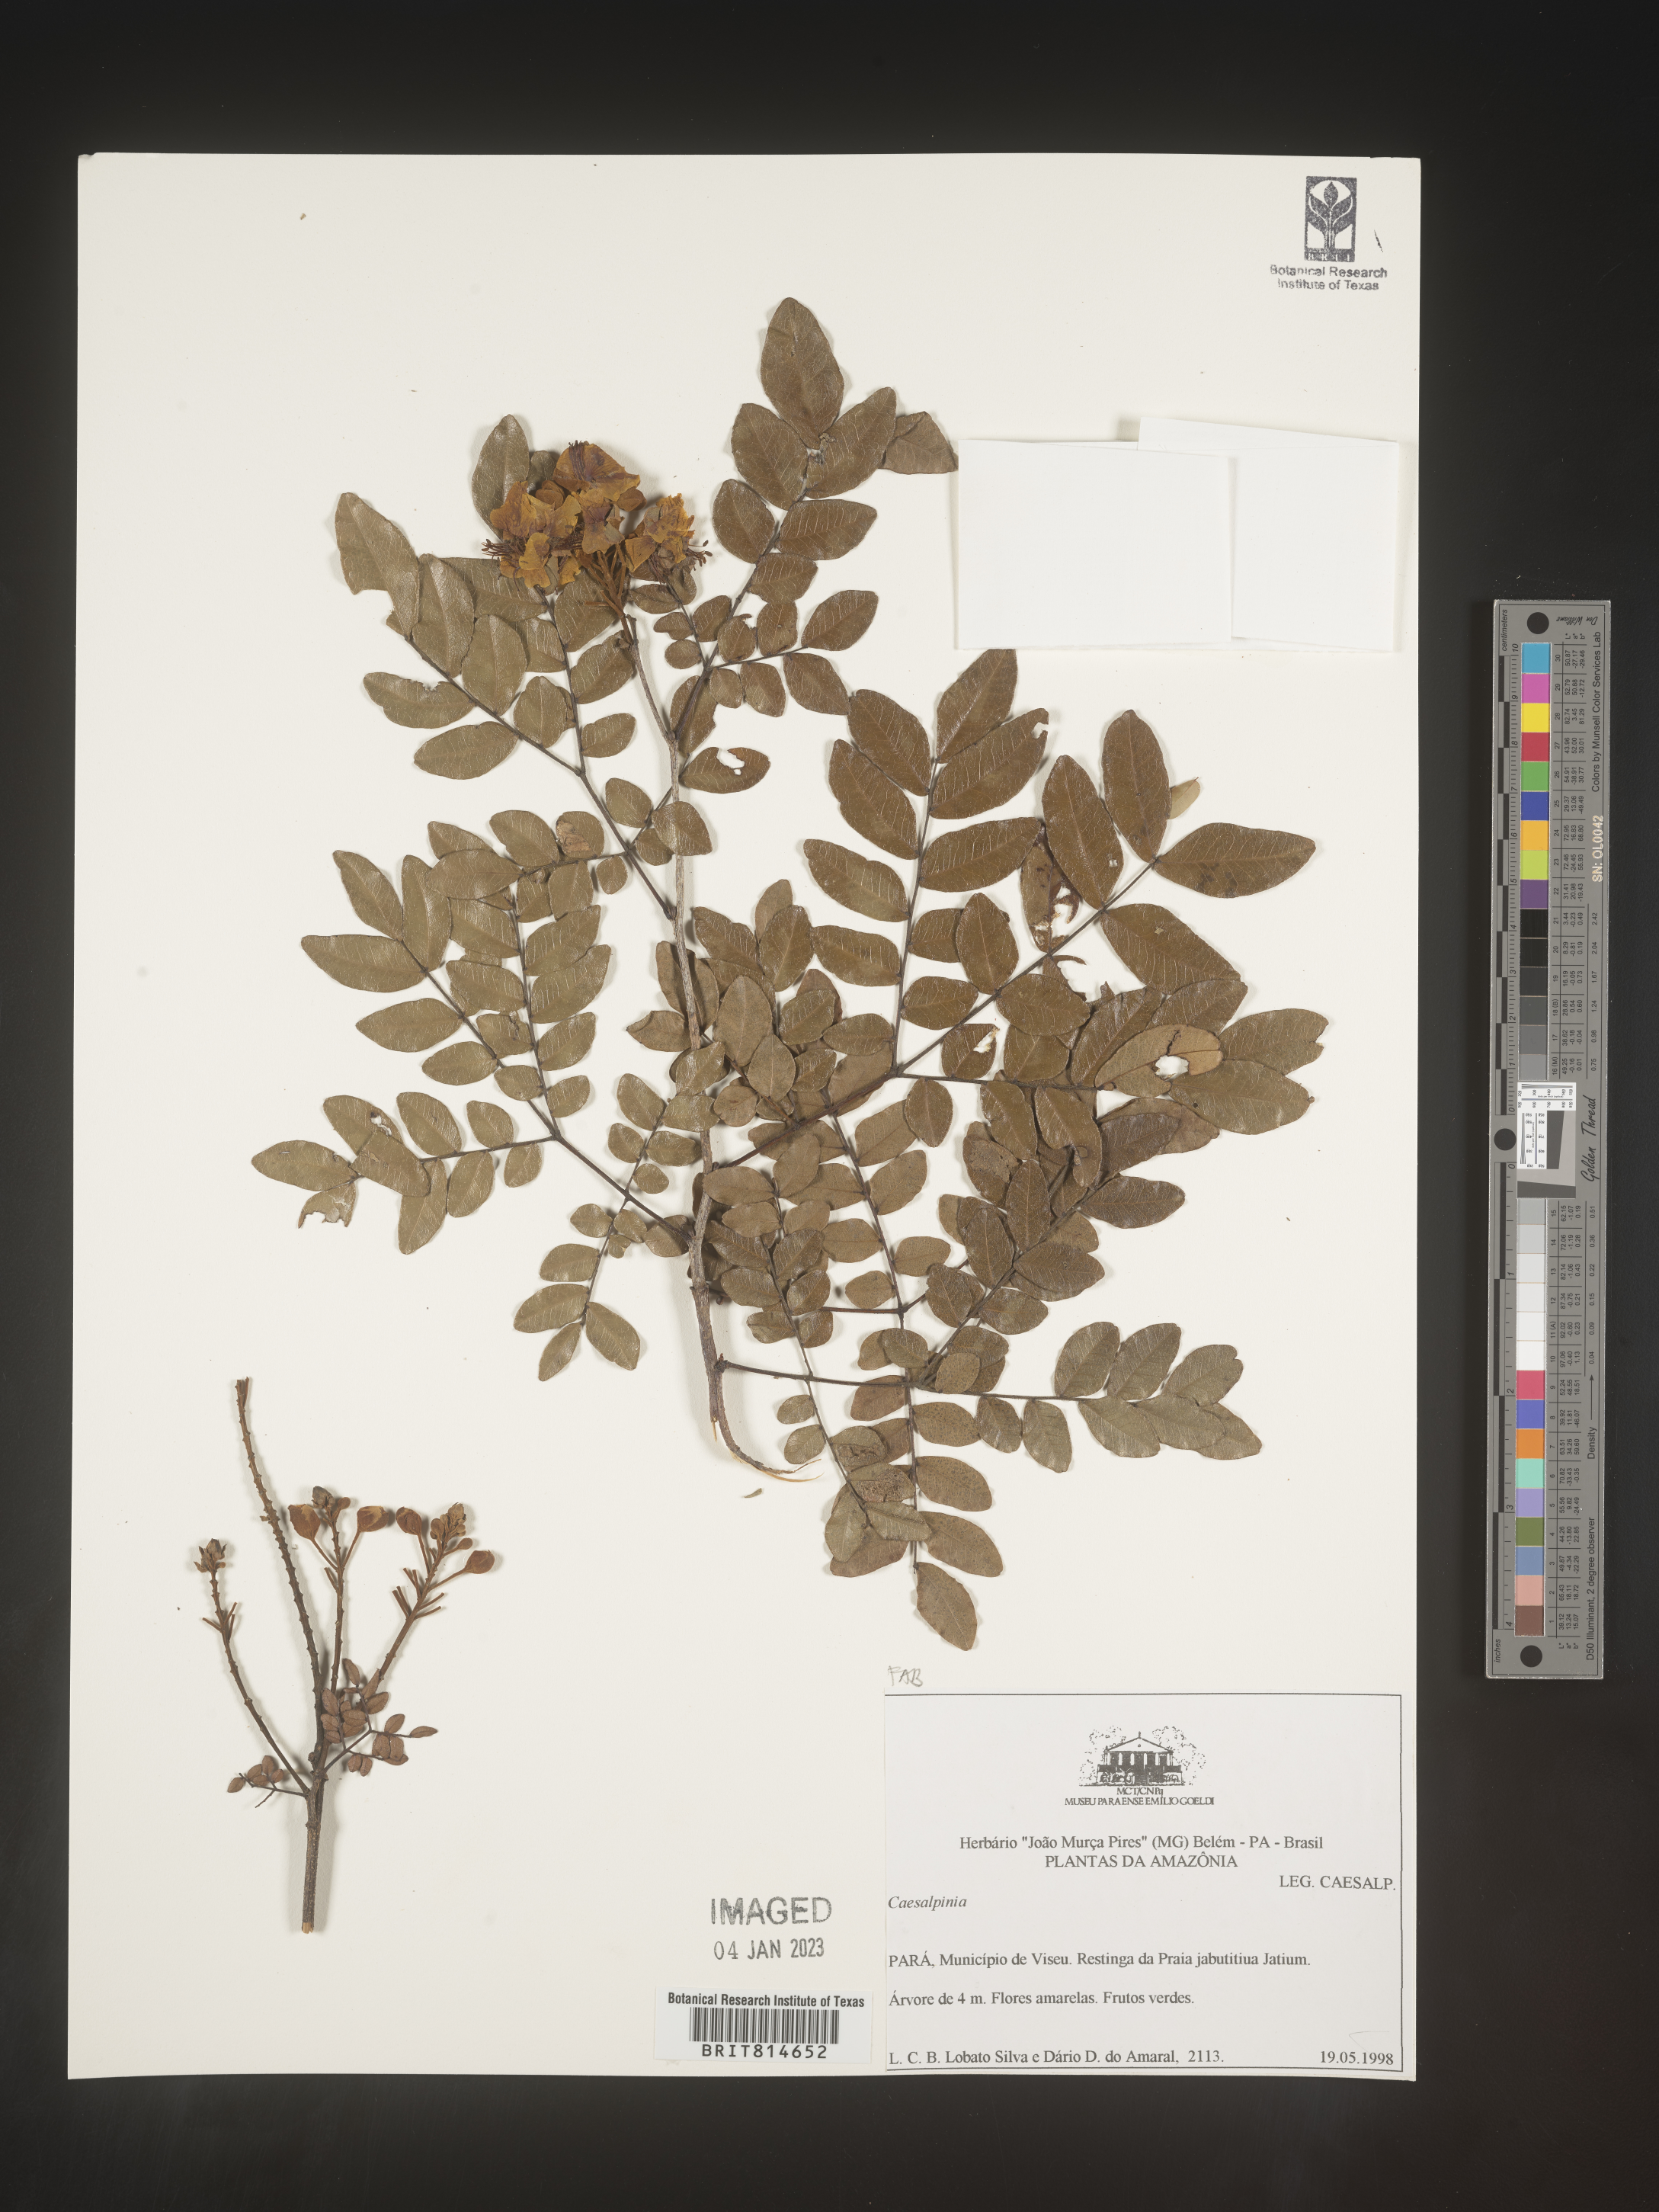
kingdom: Plantae
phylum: Tracheophyta
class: Magnoliopsida
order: Fabales
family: Fabaceae
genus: Caesalpinia
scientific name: Caesalpinia
